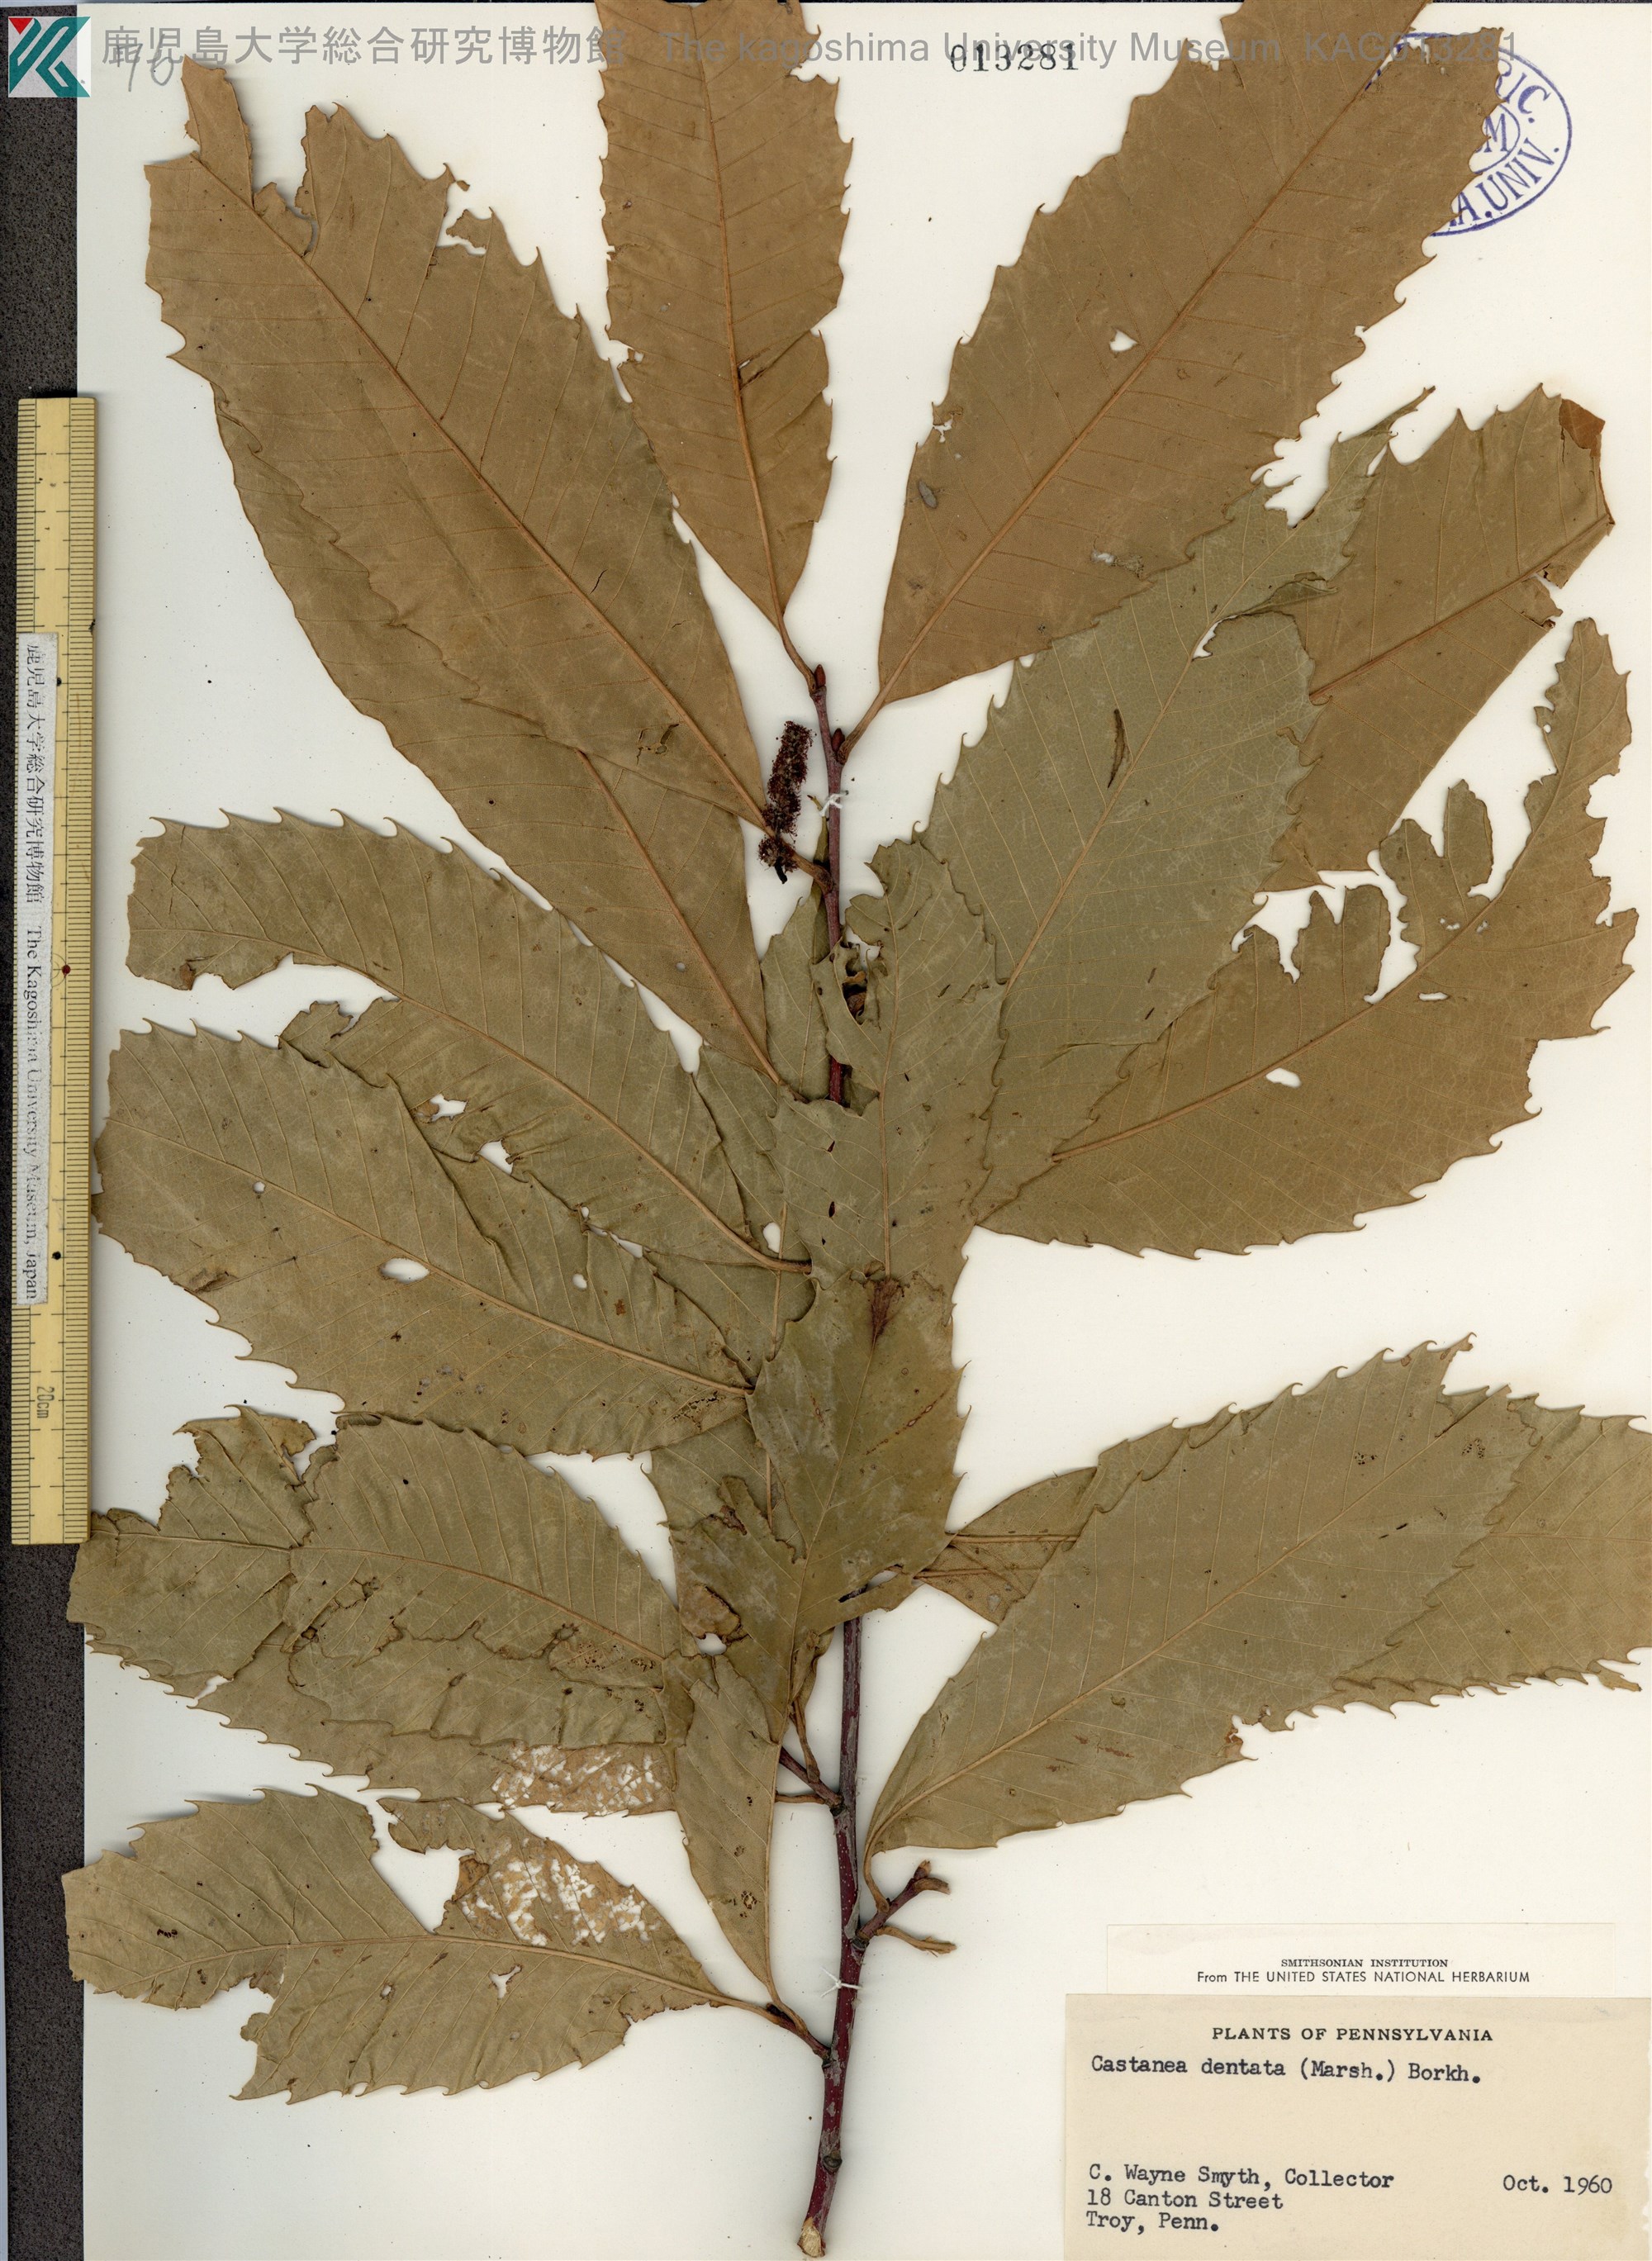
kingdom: Plantae
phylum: Tracheophyta
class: Magnoliopsida
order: Fagales
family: Fagaceae
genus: Castanea
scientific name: Castanea dentata
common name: American chestnut
